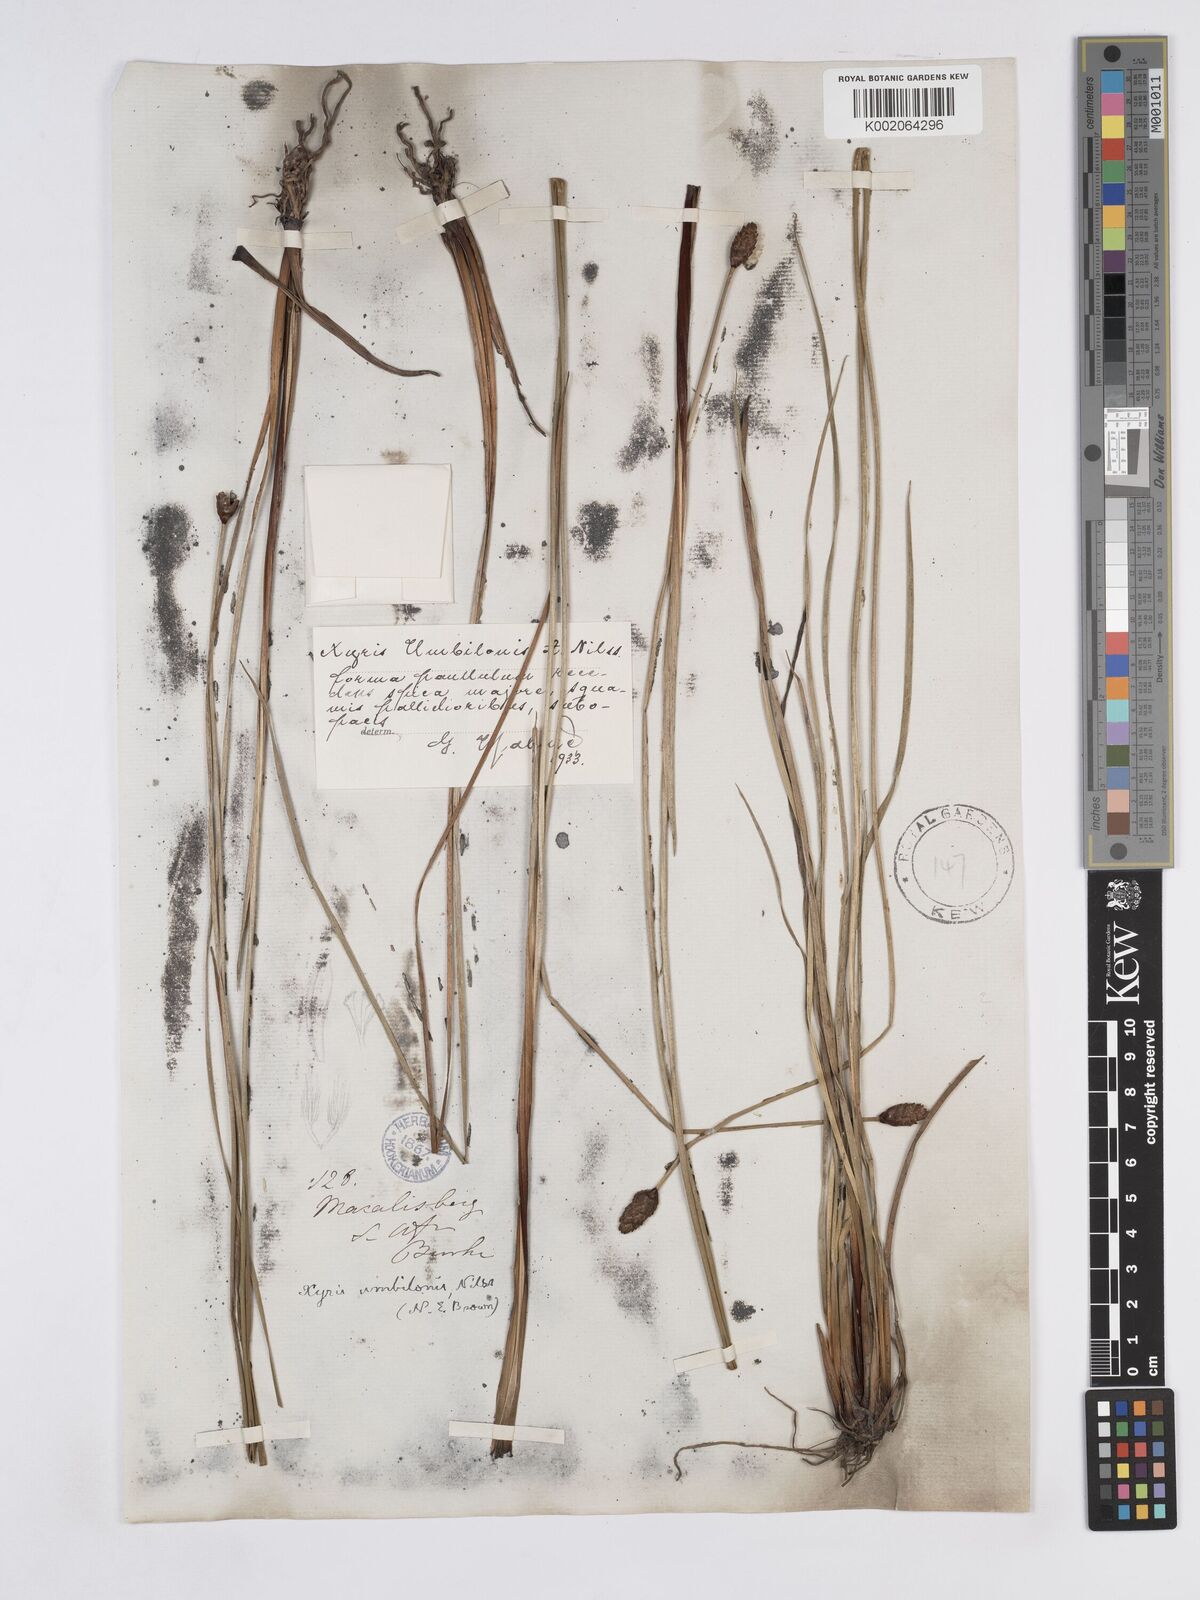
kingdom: Plantae
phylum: Tracheophyta
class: Liliopsida
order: Poales
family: Xyridaceae
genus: Xyris
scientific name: Xyris congensis
